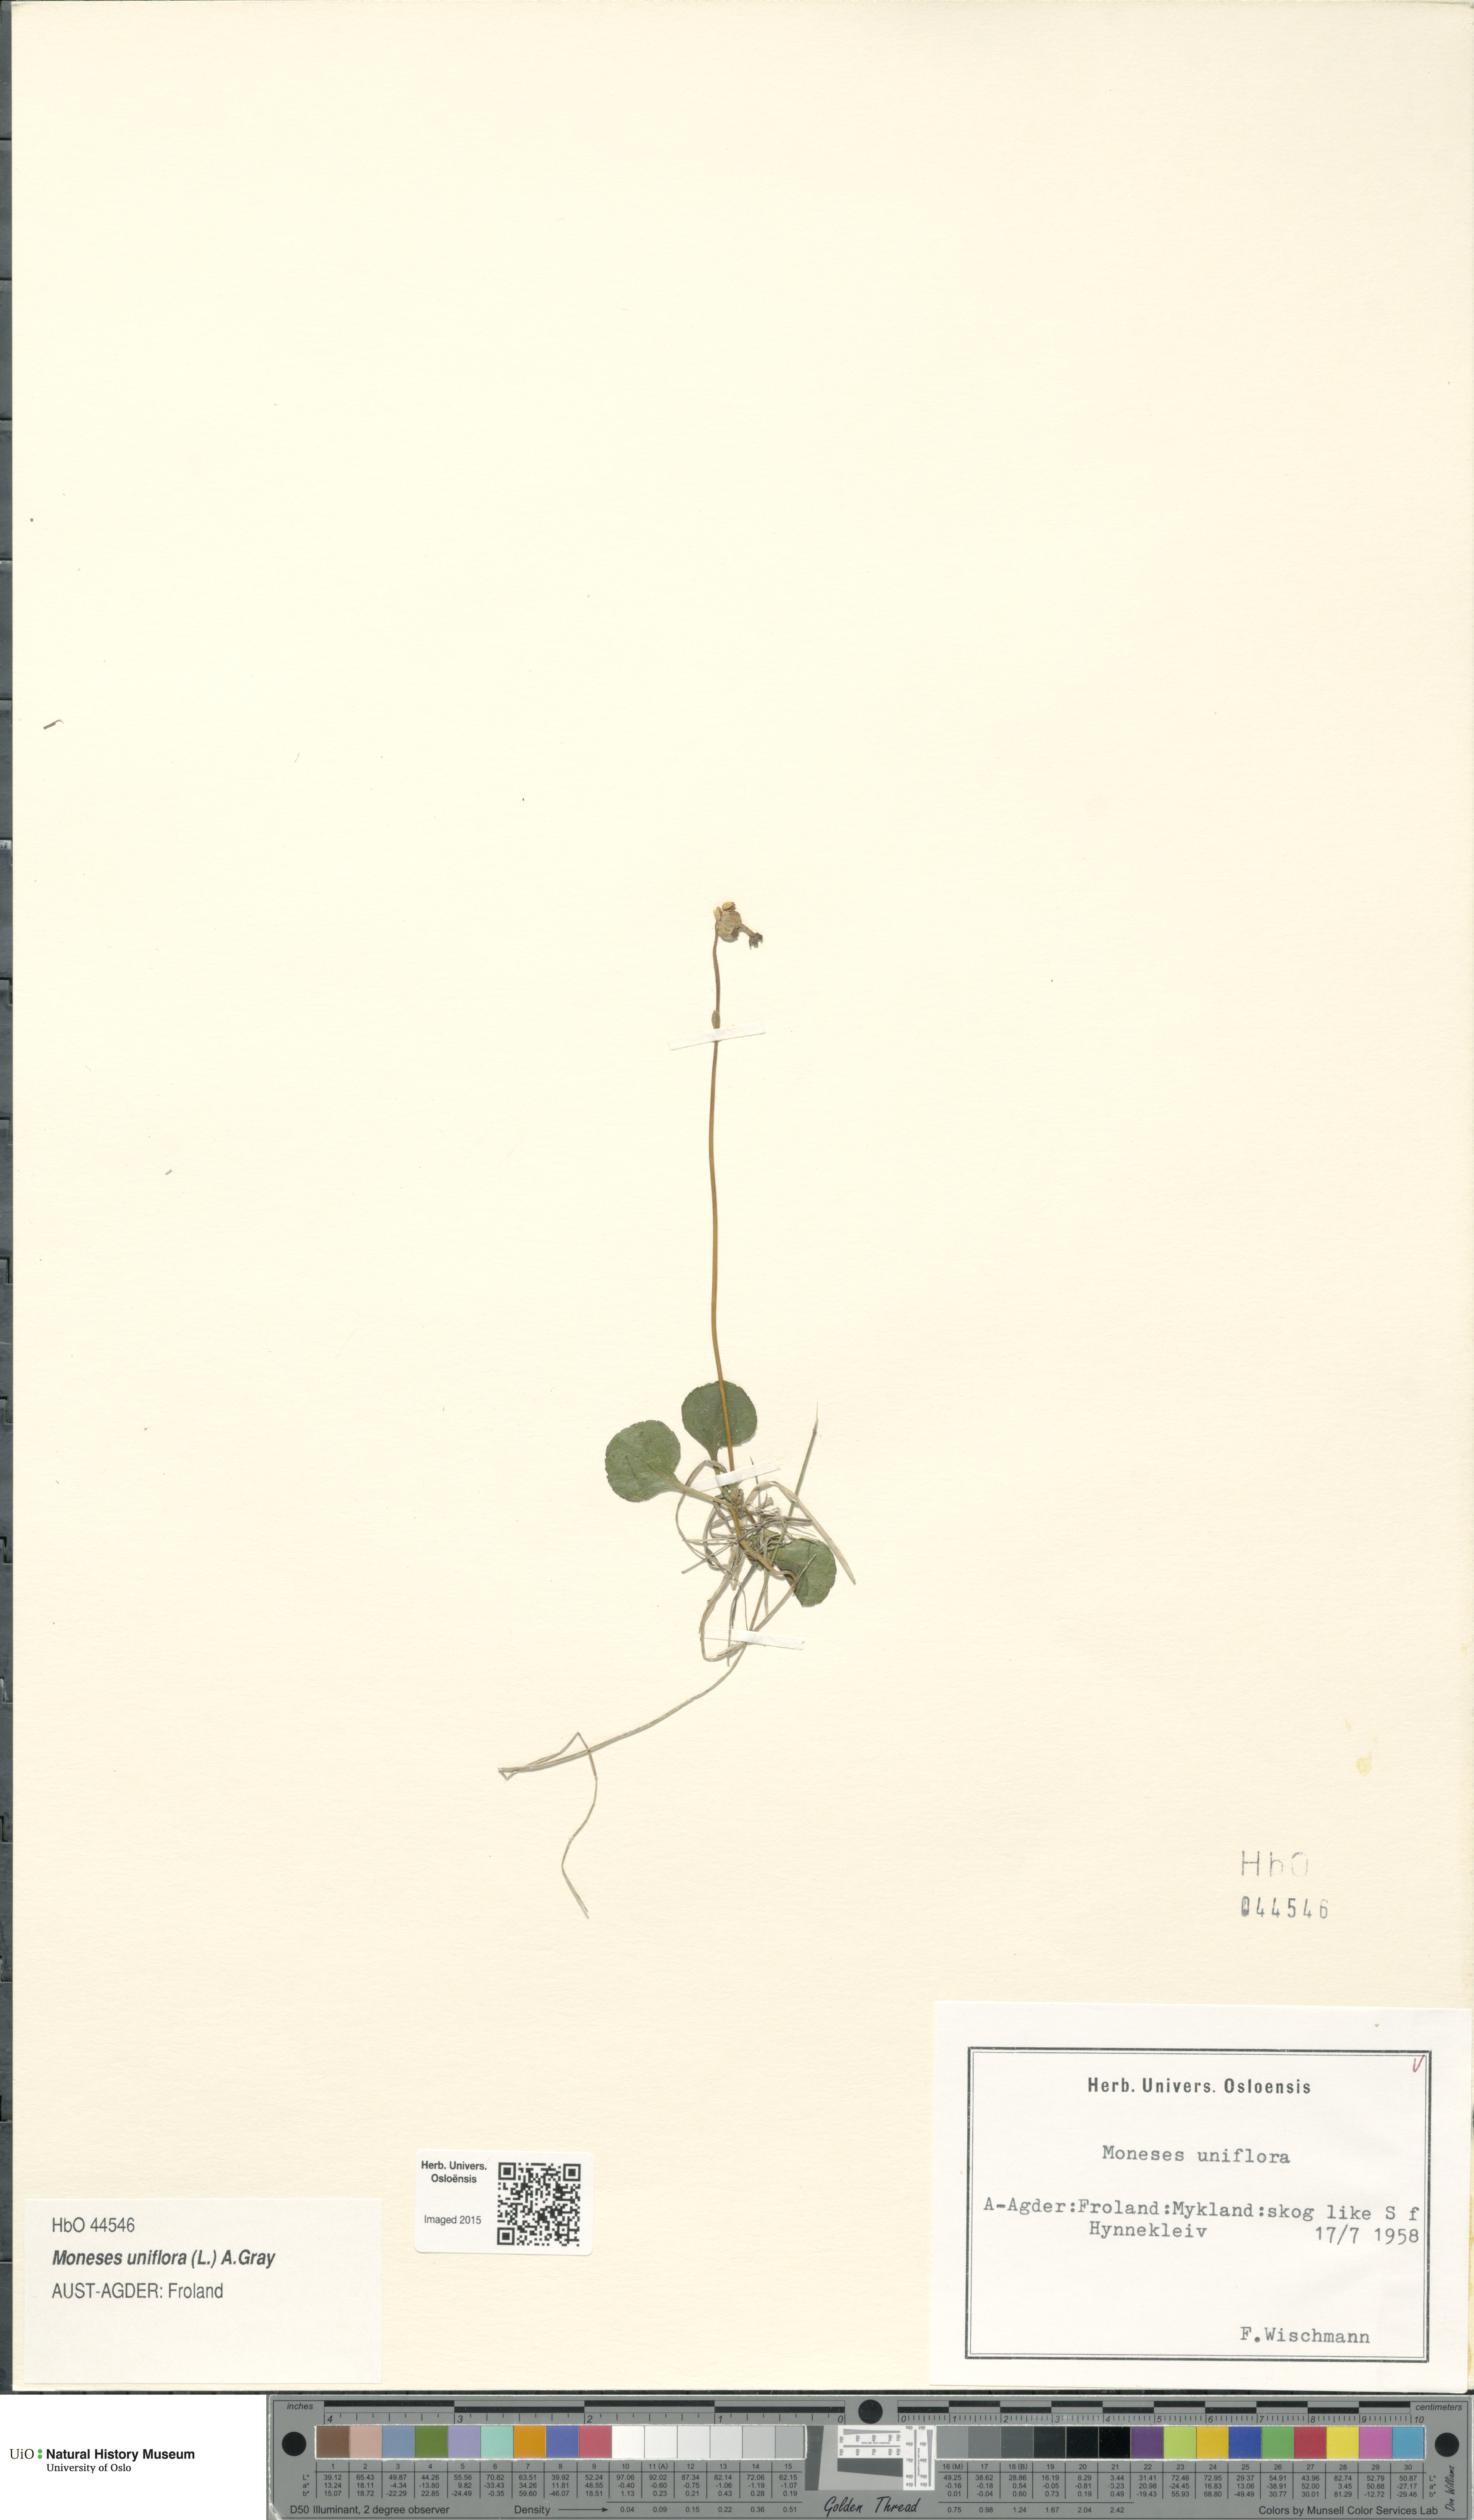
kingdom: Plantae
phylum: Tracheophyta
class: Magnoliopsida
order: Ericales
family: Ericaceae
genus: Moneses
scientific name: Moneses uniflora
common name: One-flowered wintergreen
